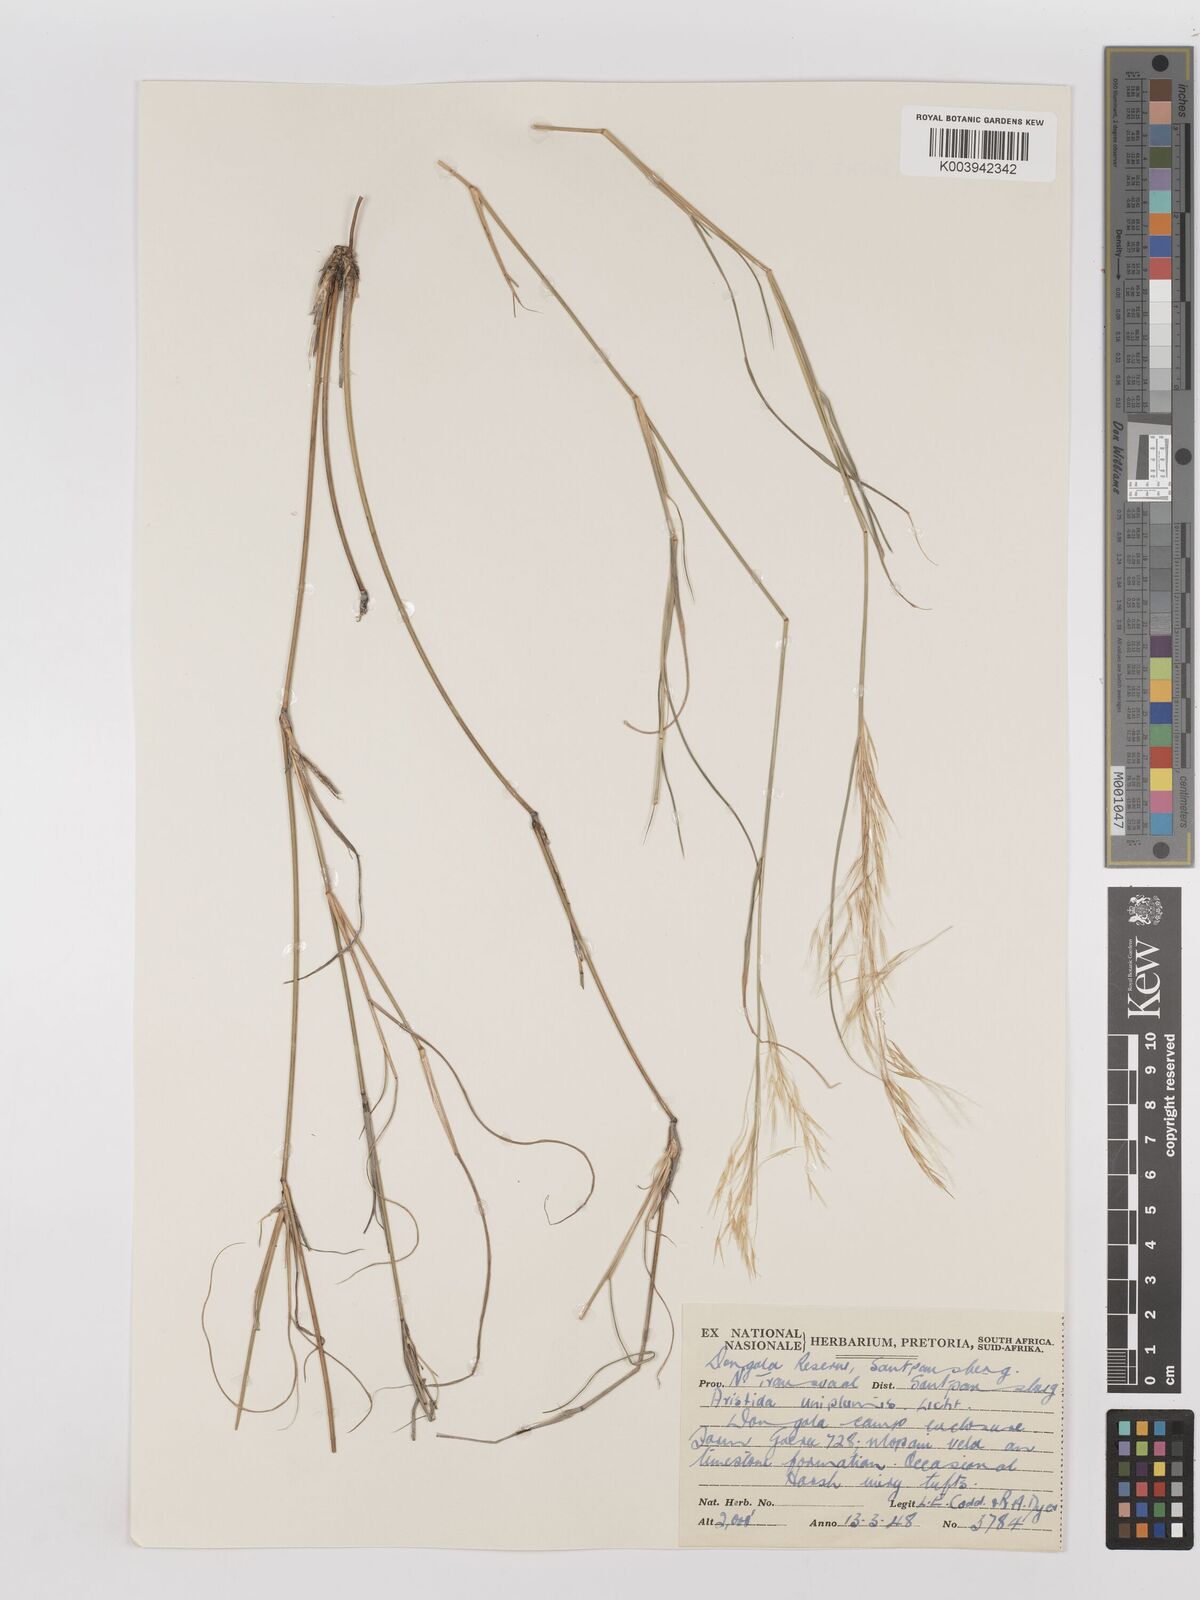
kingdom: Plantae
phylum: Tracheophyta
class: Liliopsida
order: Poales
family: Poaceae
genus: Stipagrostis
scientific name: Stipagrostis uniplumis
